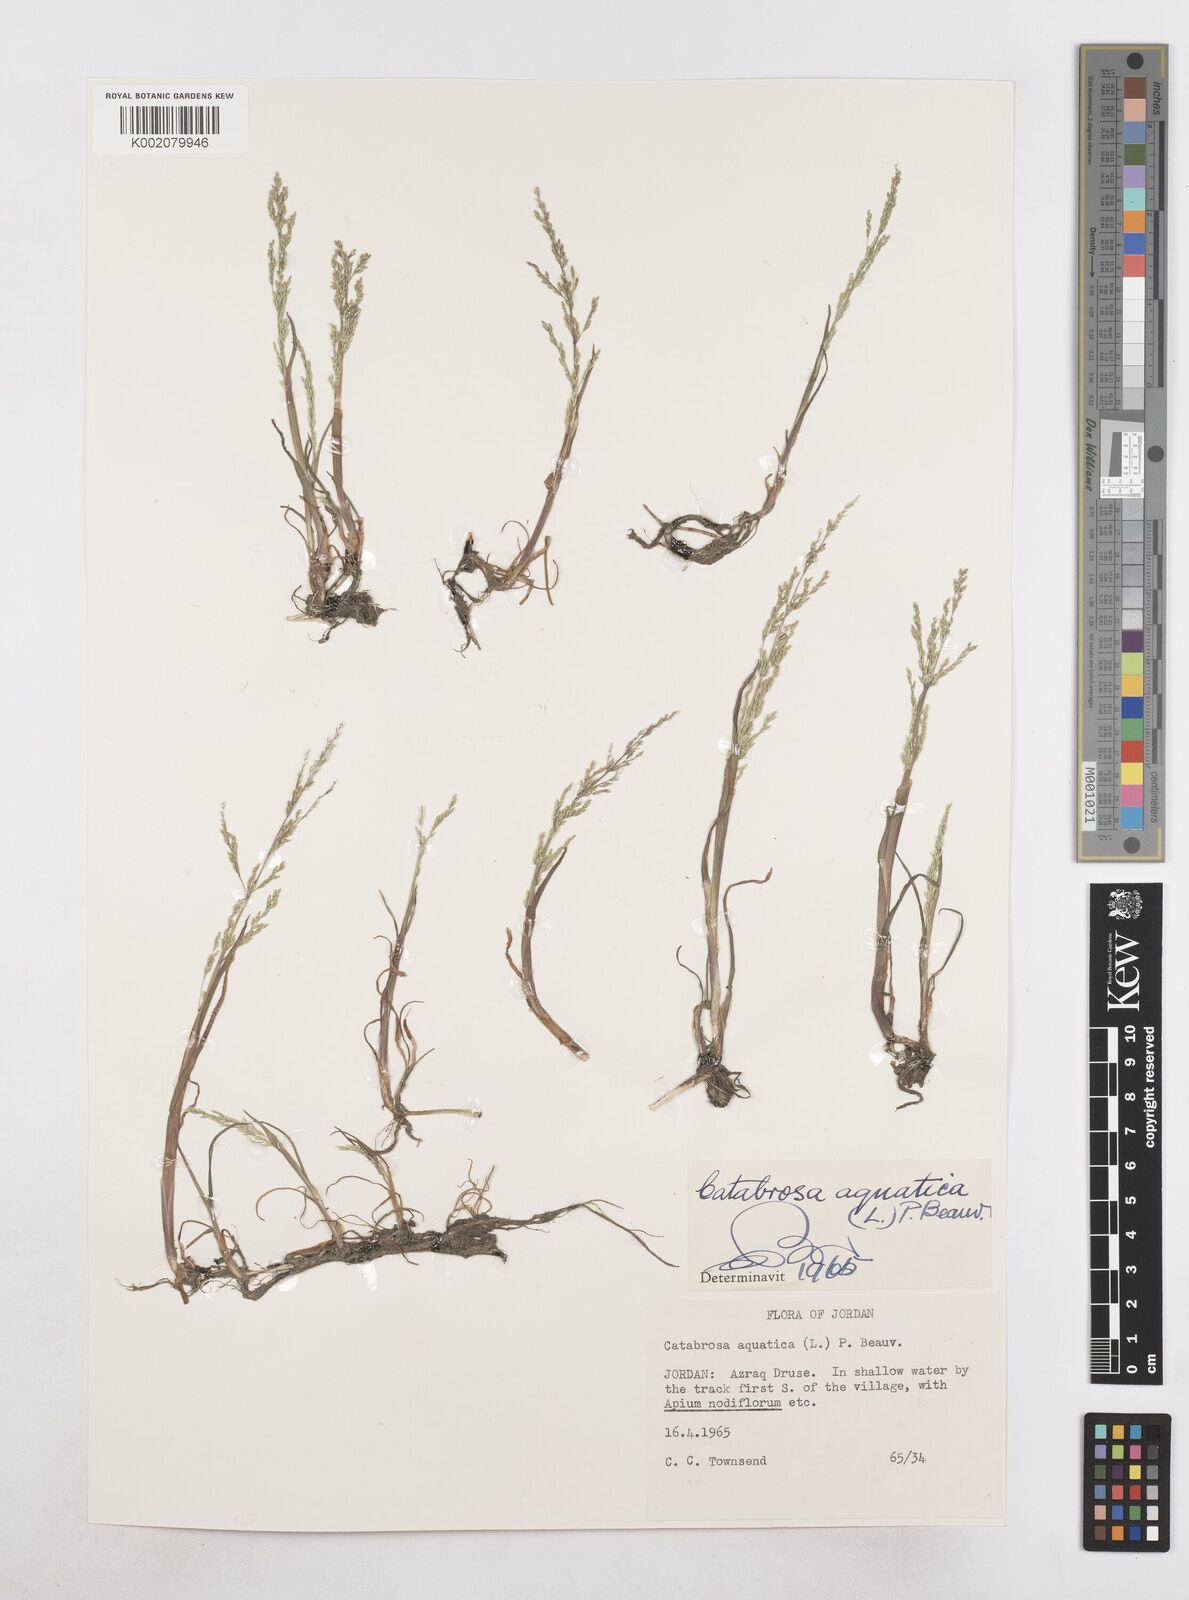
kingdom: Plantae
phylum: Tracheophyta
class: Liliopsida
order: Poales
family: Poaceae
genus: Catabrosa
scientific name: Catabrosa aquatica
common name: Whorl-grass
